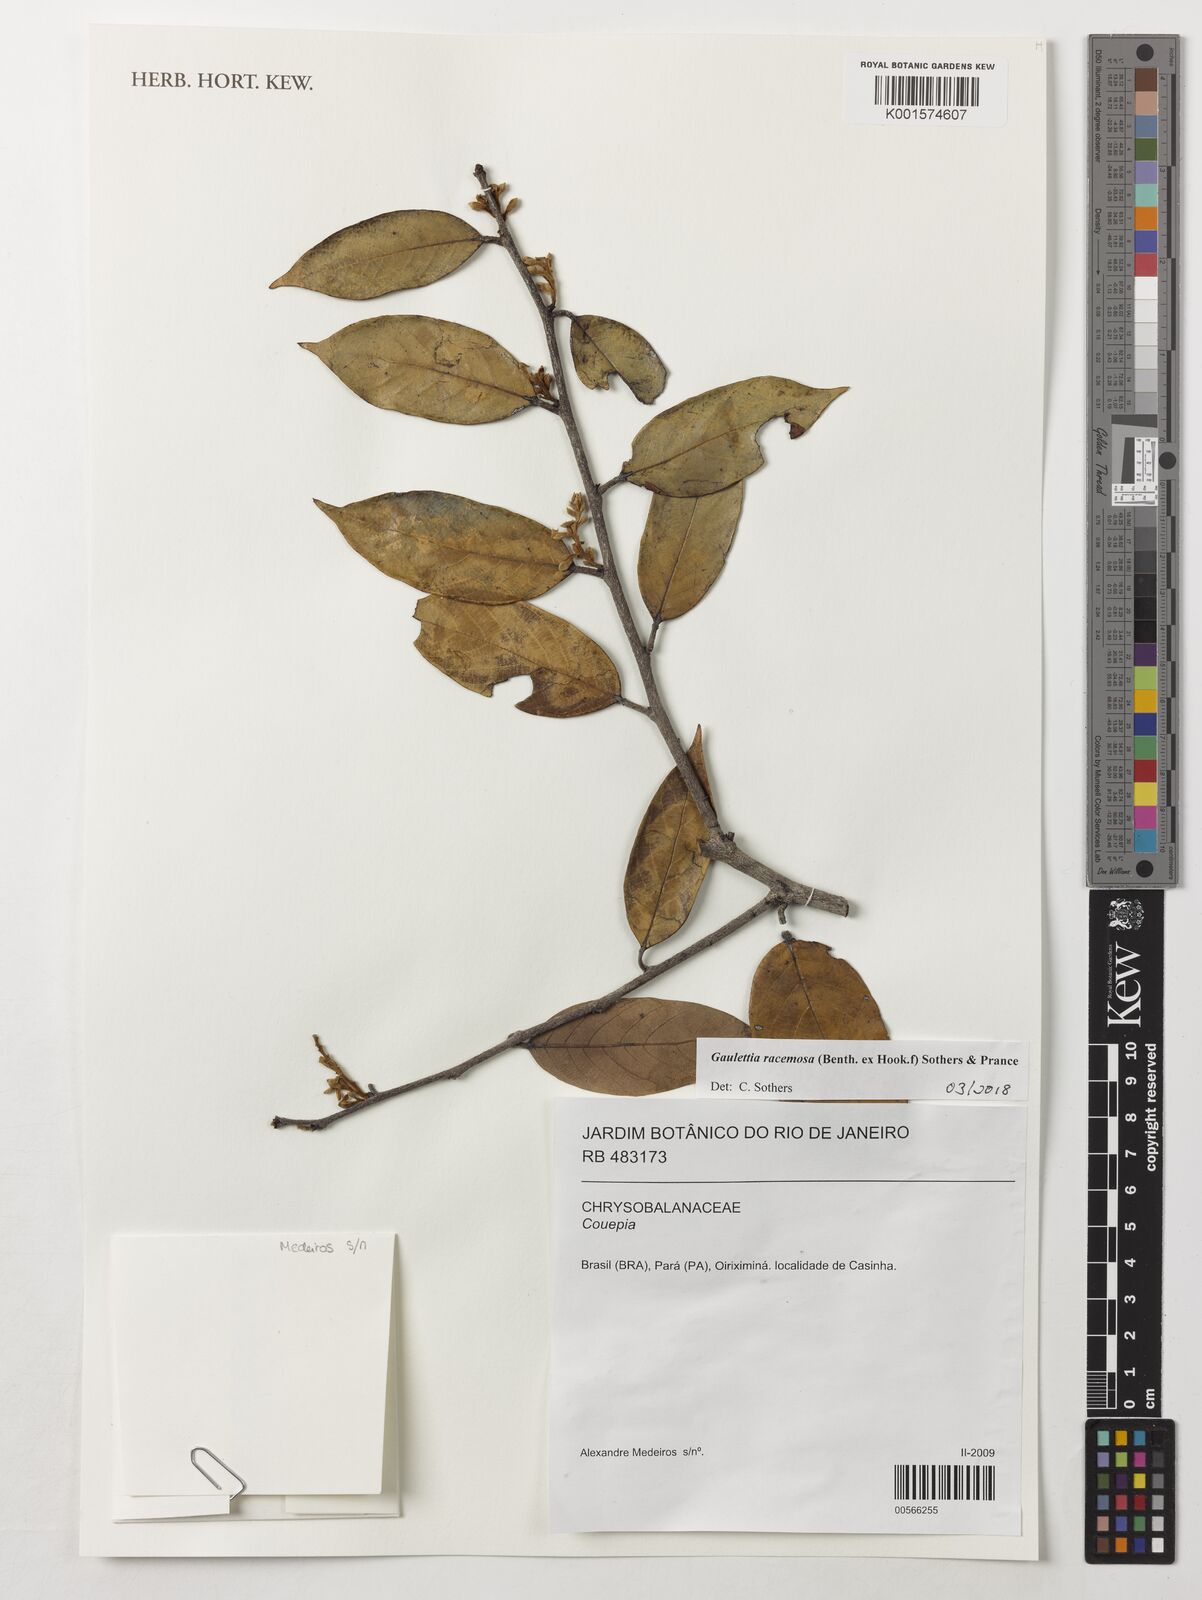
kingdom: Plantae
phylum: Tracheophyta
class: Magnoliopsida
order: Malpighiales
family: Chrysobalanaceae
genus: Gaulettia
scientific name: Gaulettia racemosa
